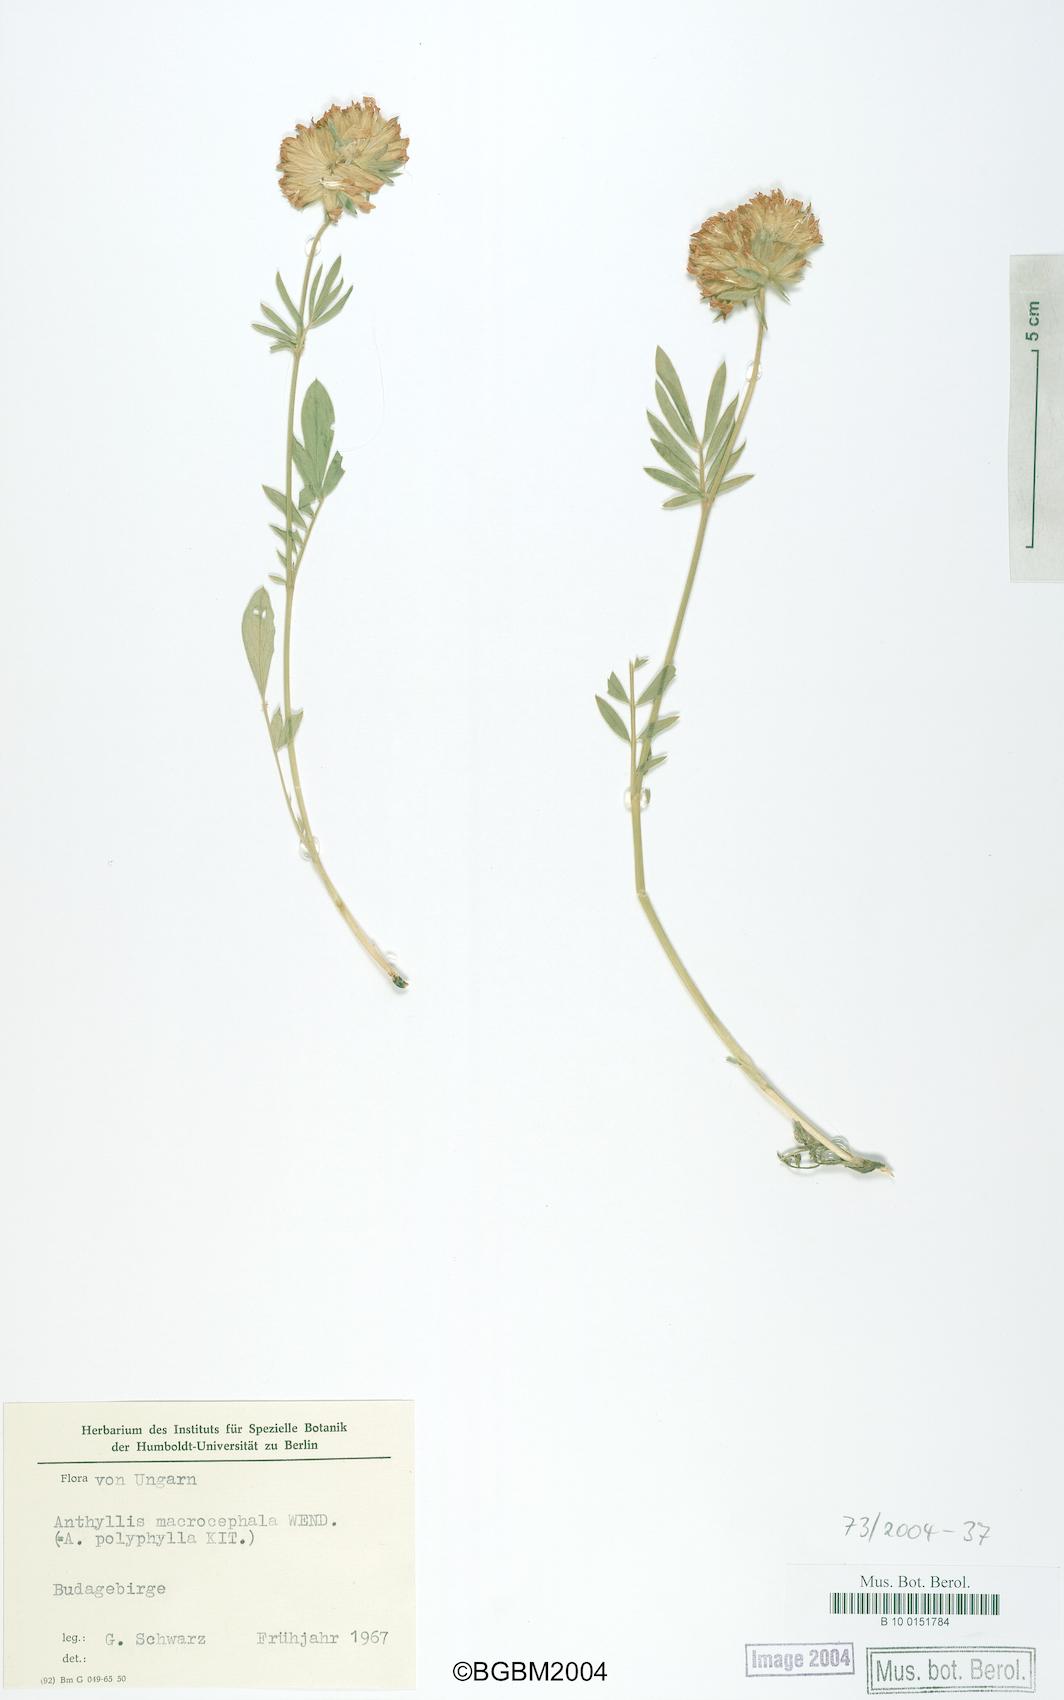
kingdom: Plantae
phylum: Tracheophyta
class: Magnoliopsida
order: Fabales
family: Fabaceae
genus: Anthyllis
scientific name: Anthyllis vulneraria
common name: Kidney vetch
